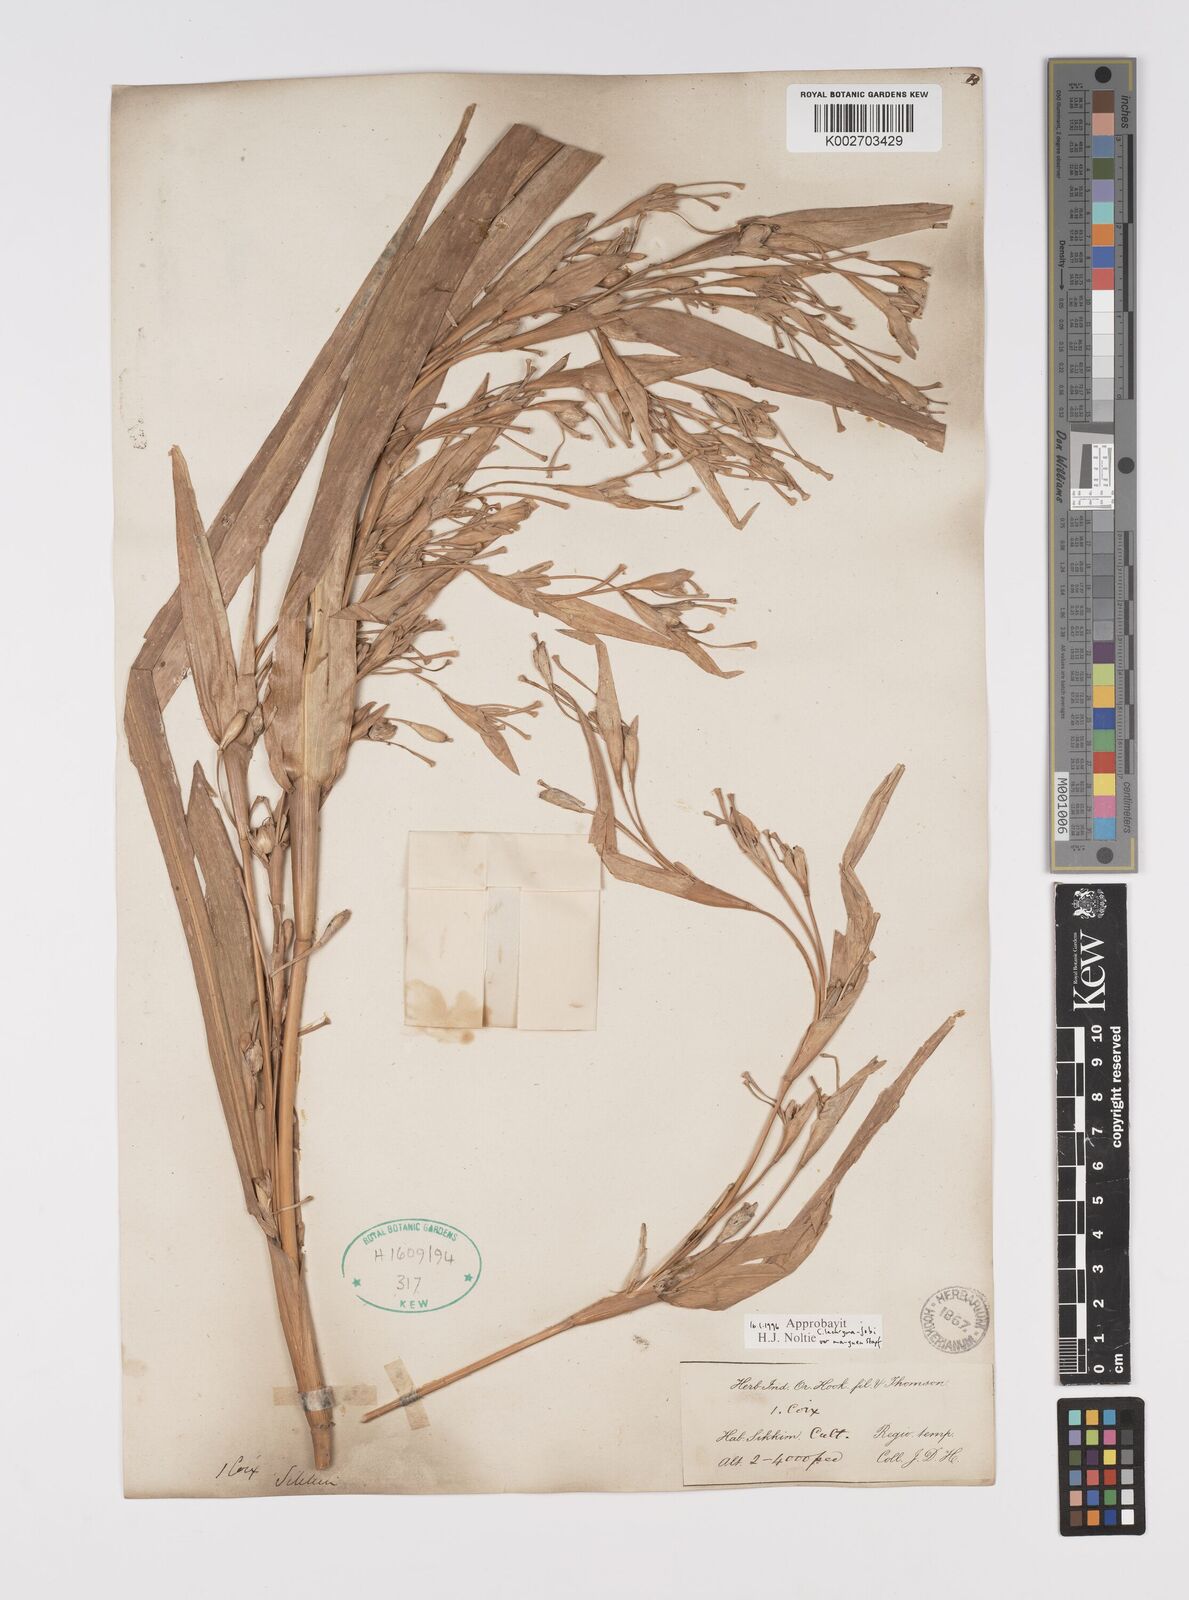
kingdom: Plantae
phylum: Tracheophyta
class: Liliopsida
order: Poales
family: Poaceae
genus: Coix
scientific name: Coix lacryma-jobi
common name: Job's tears
